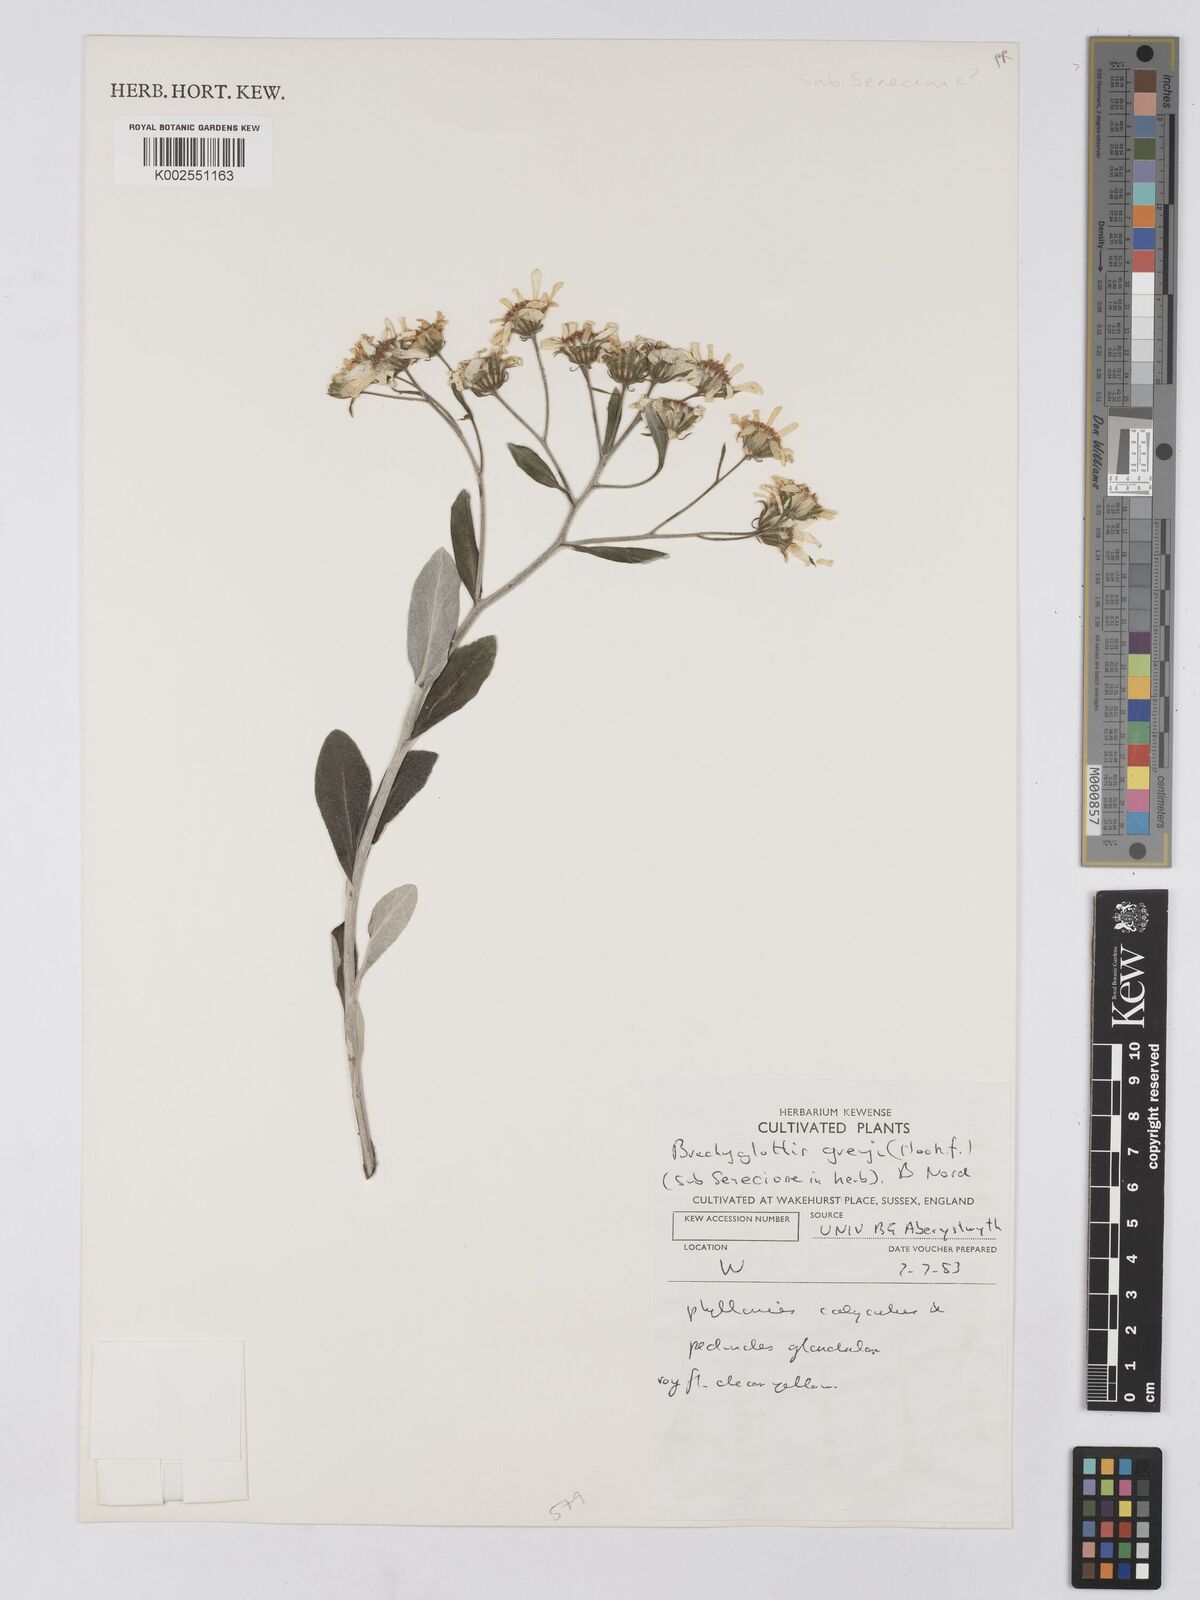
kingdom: Plantae
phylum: Tracheophyta
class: Magnoliopsida
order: Asterales
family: Asteraceae
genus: Brachyglottis
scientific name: Brachyglottis greyi
